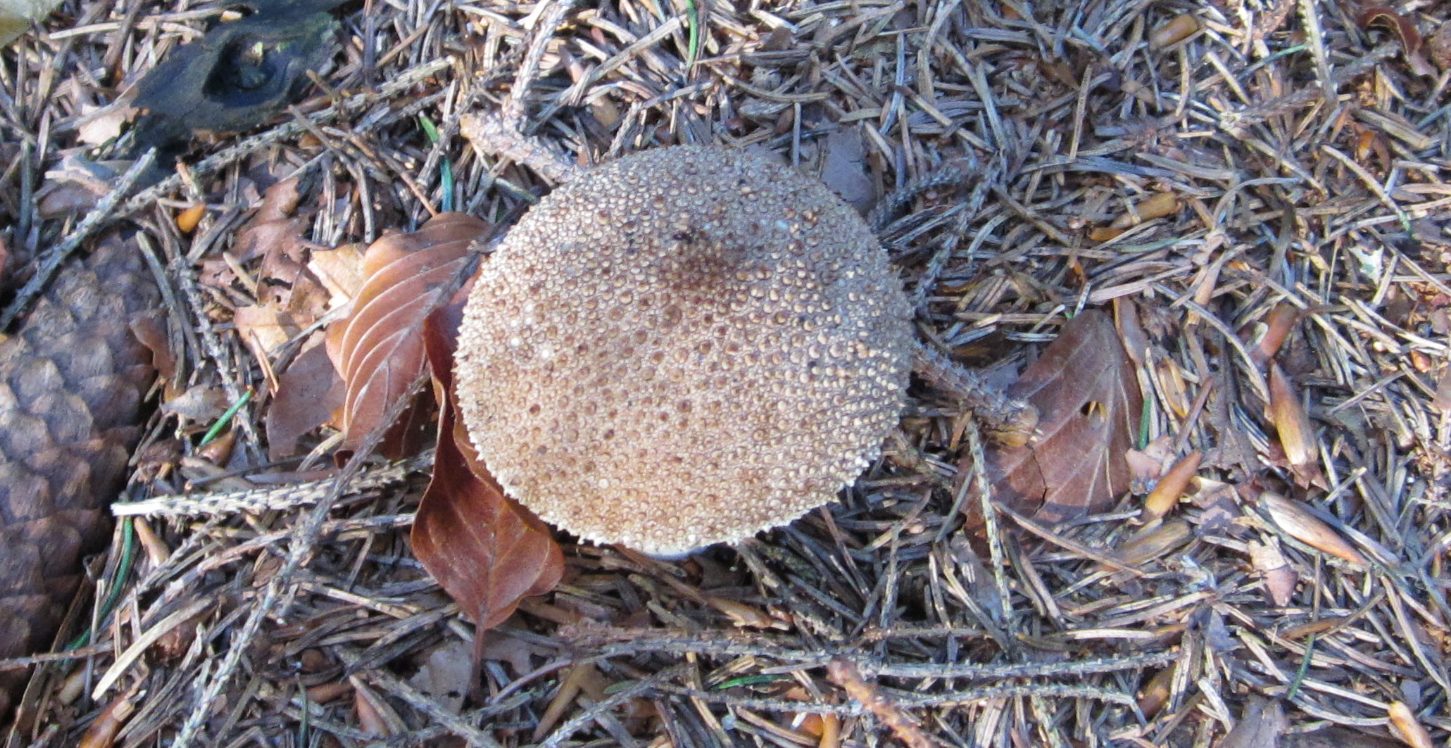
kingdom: Fungi
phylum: Basidiomycota
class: Agaricomycetes
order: Agaricales
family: Lycoperdaceae
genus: Lycoperdon
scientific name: Lycoperdon perlatum
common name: krystal-støvbold
